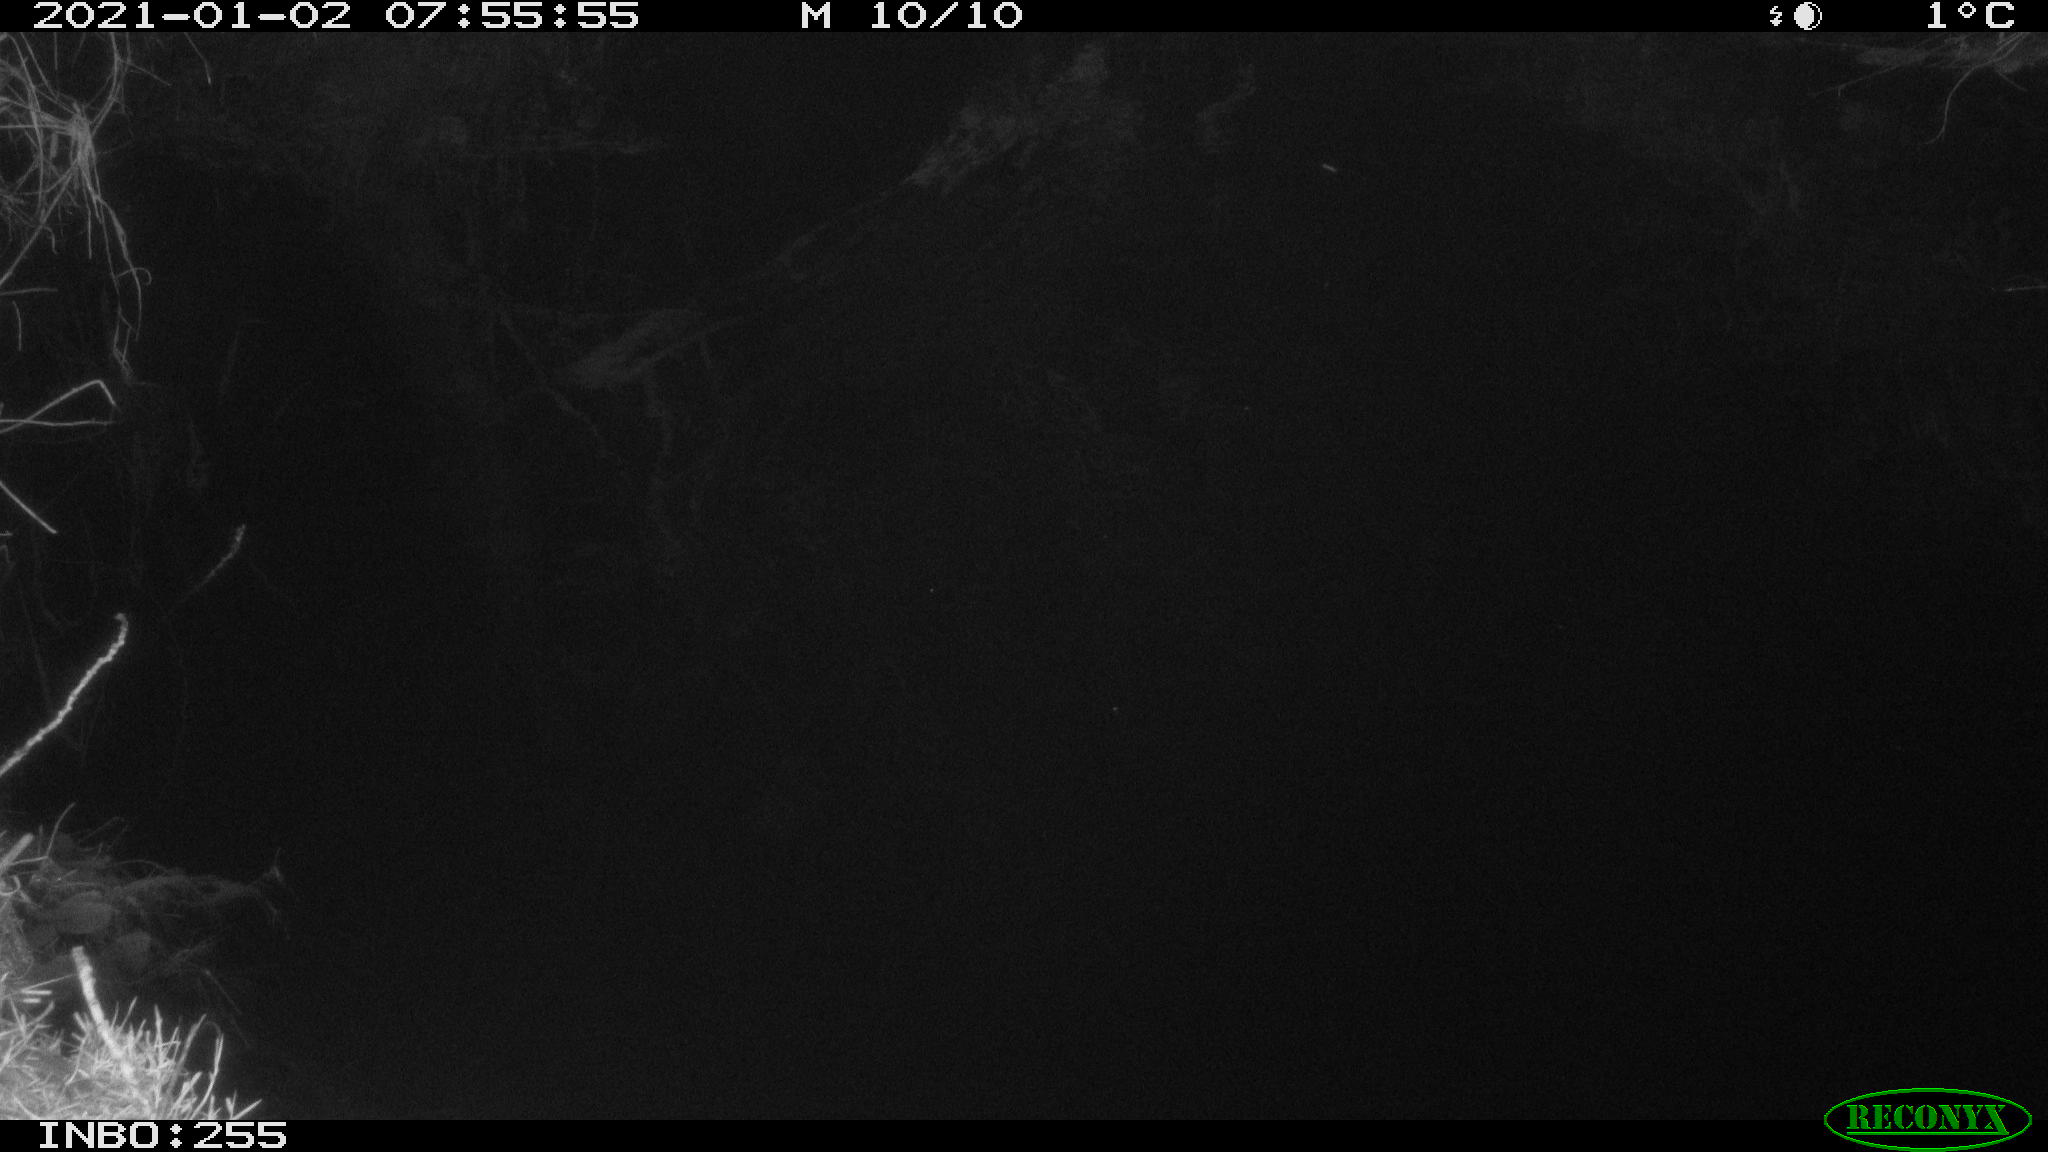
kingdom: Animalia
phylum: Chordata
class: Aves
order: Anseriformes
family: Anatidae
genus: Aix
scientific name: Aix galericulata
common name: Mandarin duck
